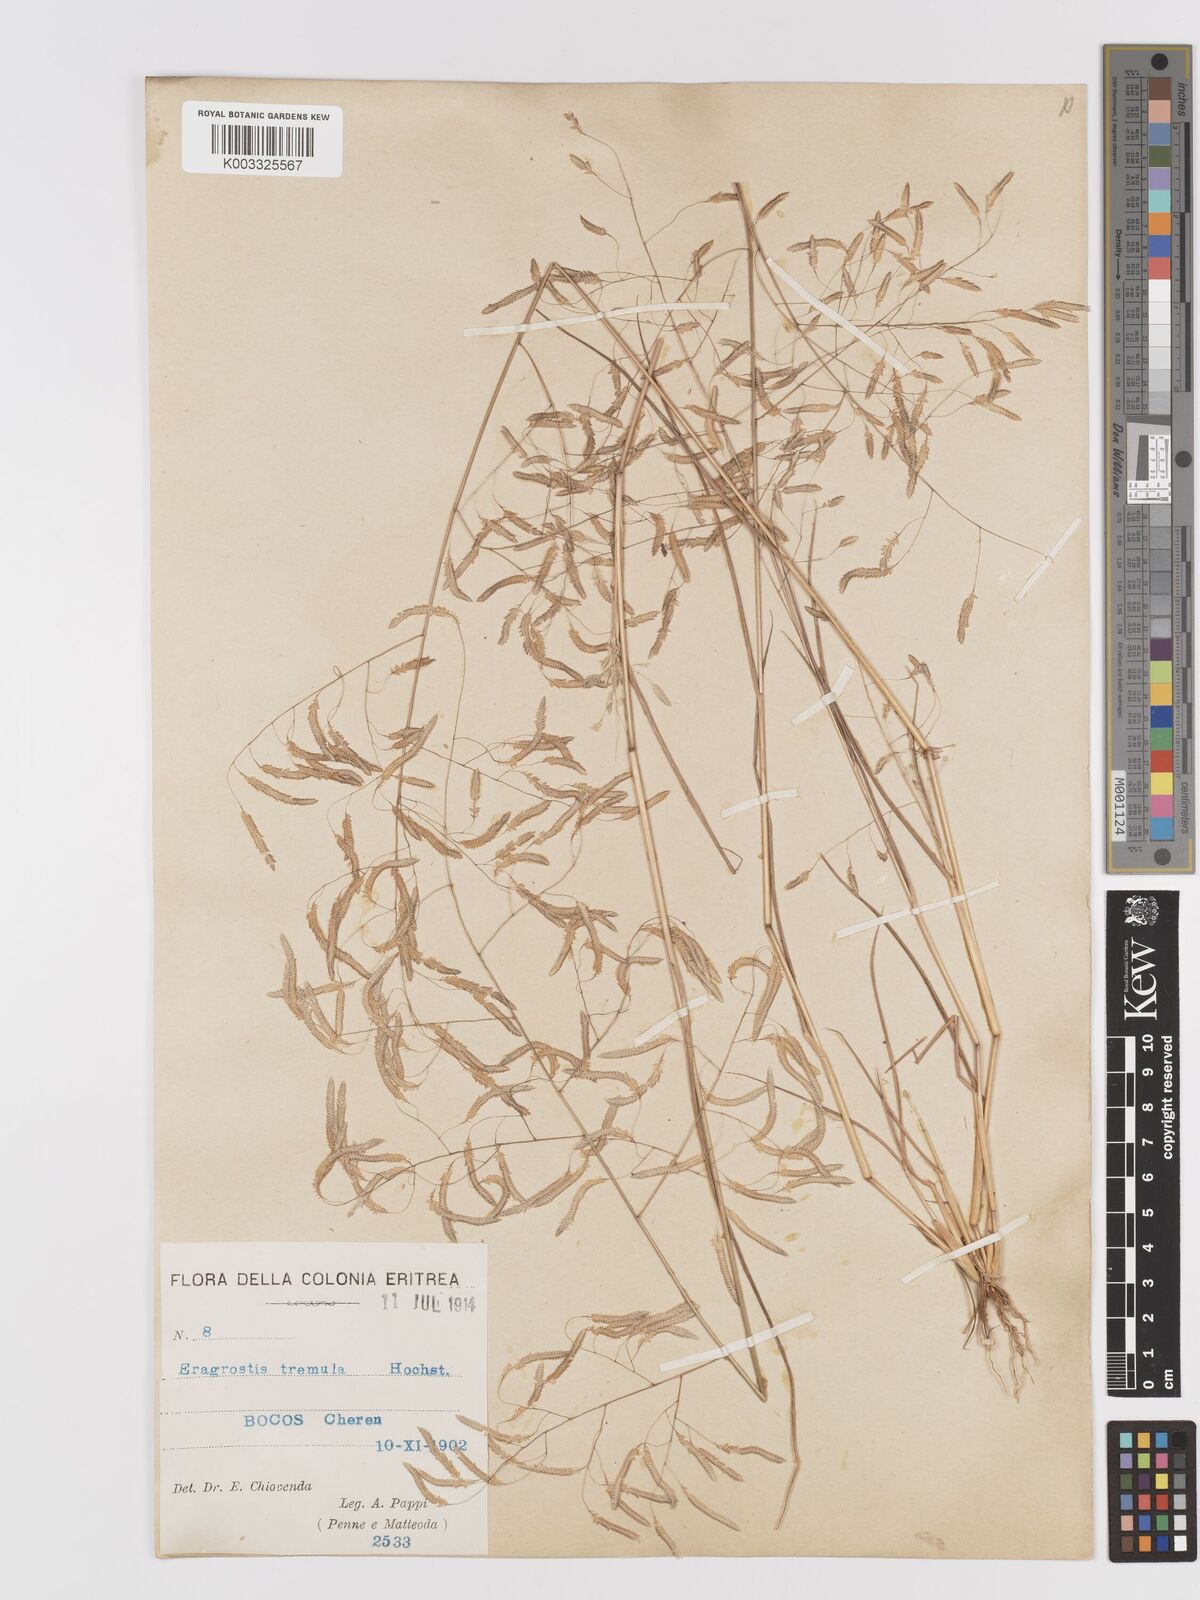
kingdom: Plantae
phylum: Tracheophyta
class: Liliopsida
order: Poales
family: Poaceae
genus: Eragrostis
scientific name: Eragrostis tremula
